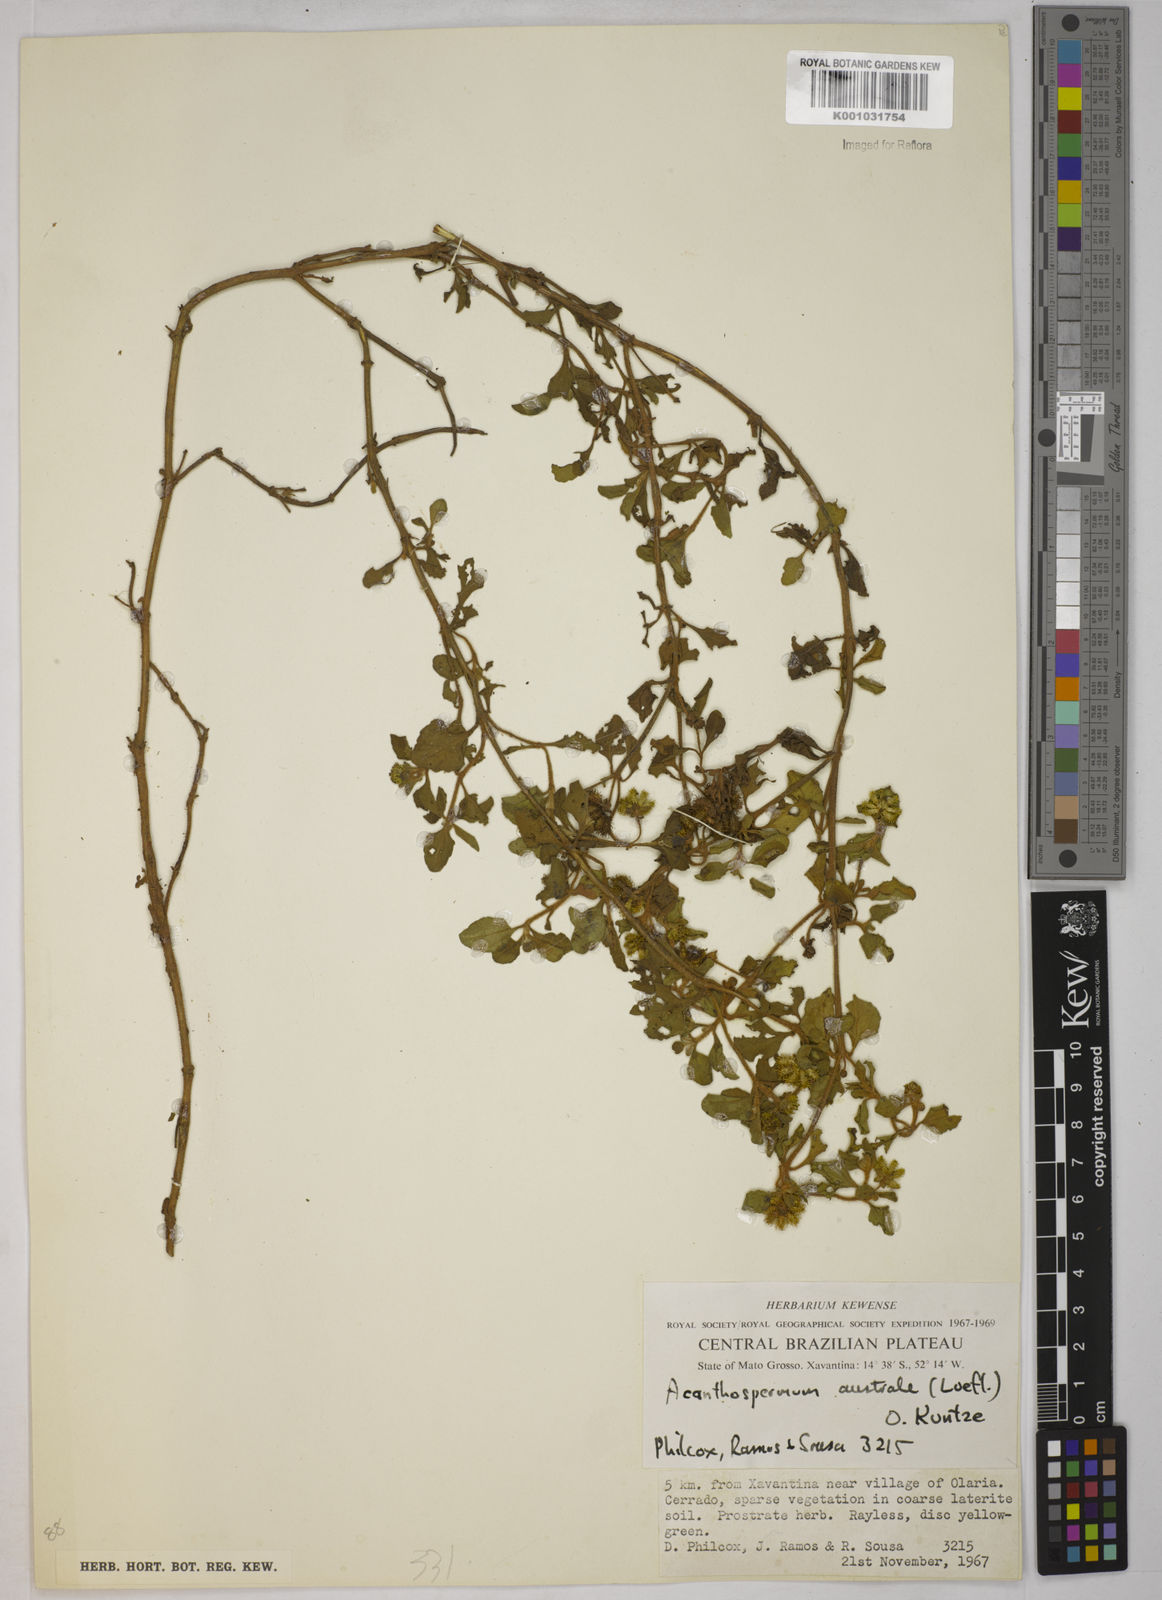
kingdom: Plantae
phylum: Tracheophyta
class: Magnoliopsida
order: Asterales
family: Asteraceae
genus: Acanthospermum
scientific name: Acanthospermum australe
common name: Paraguayan starbur
